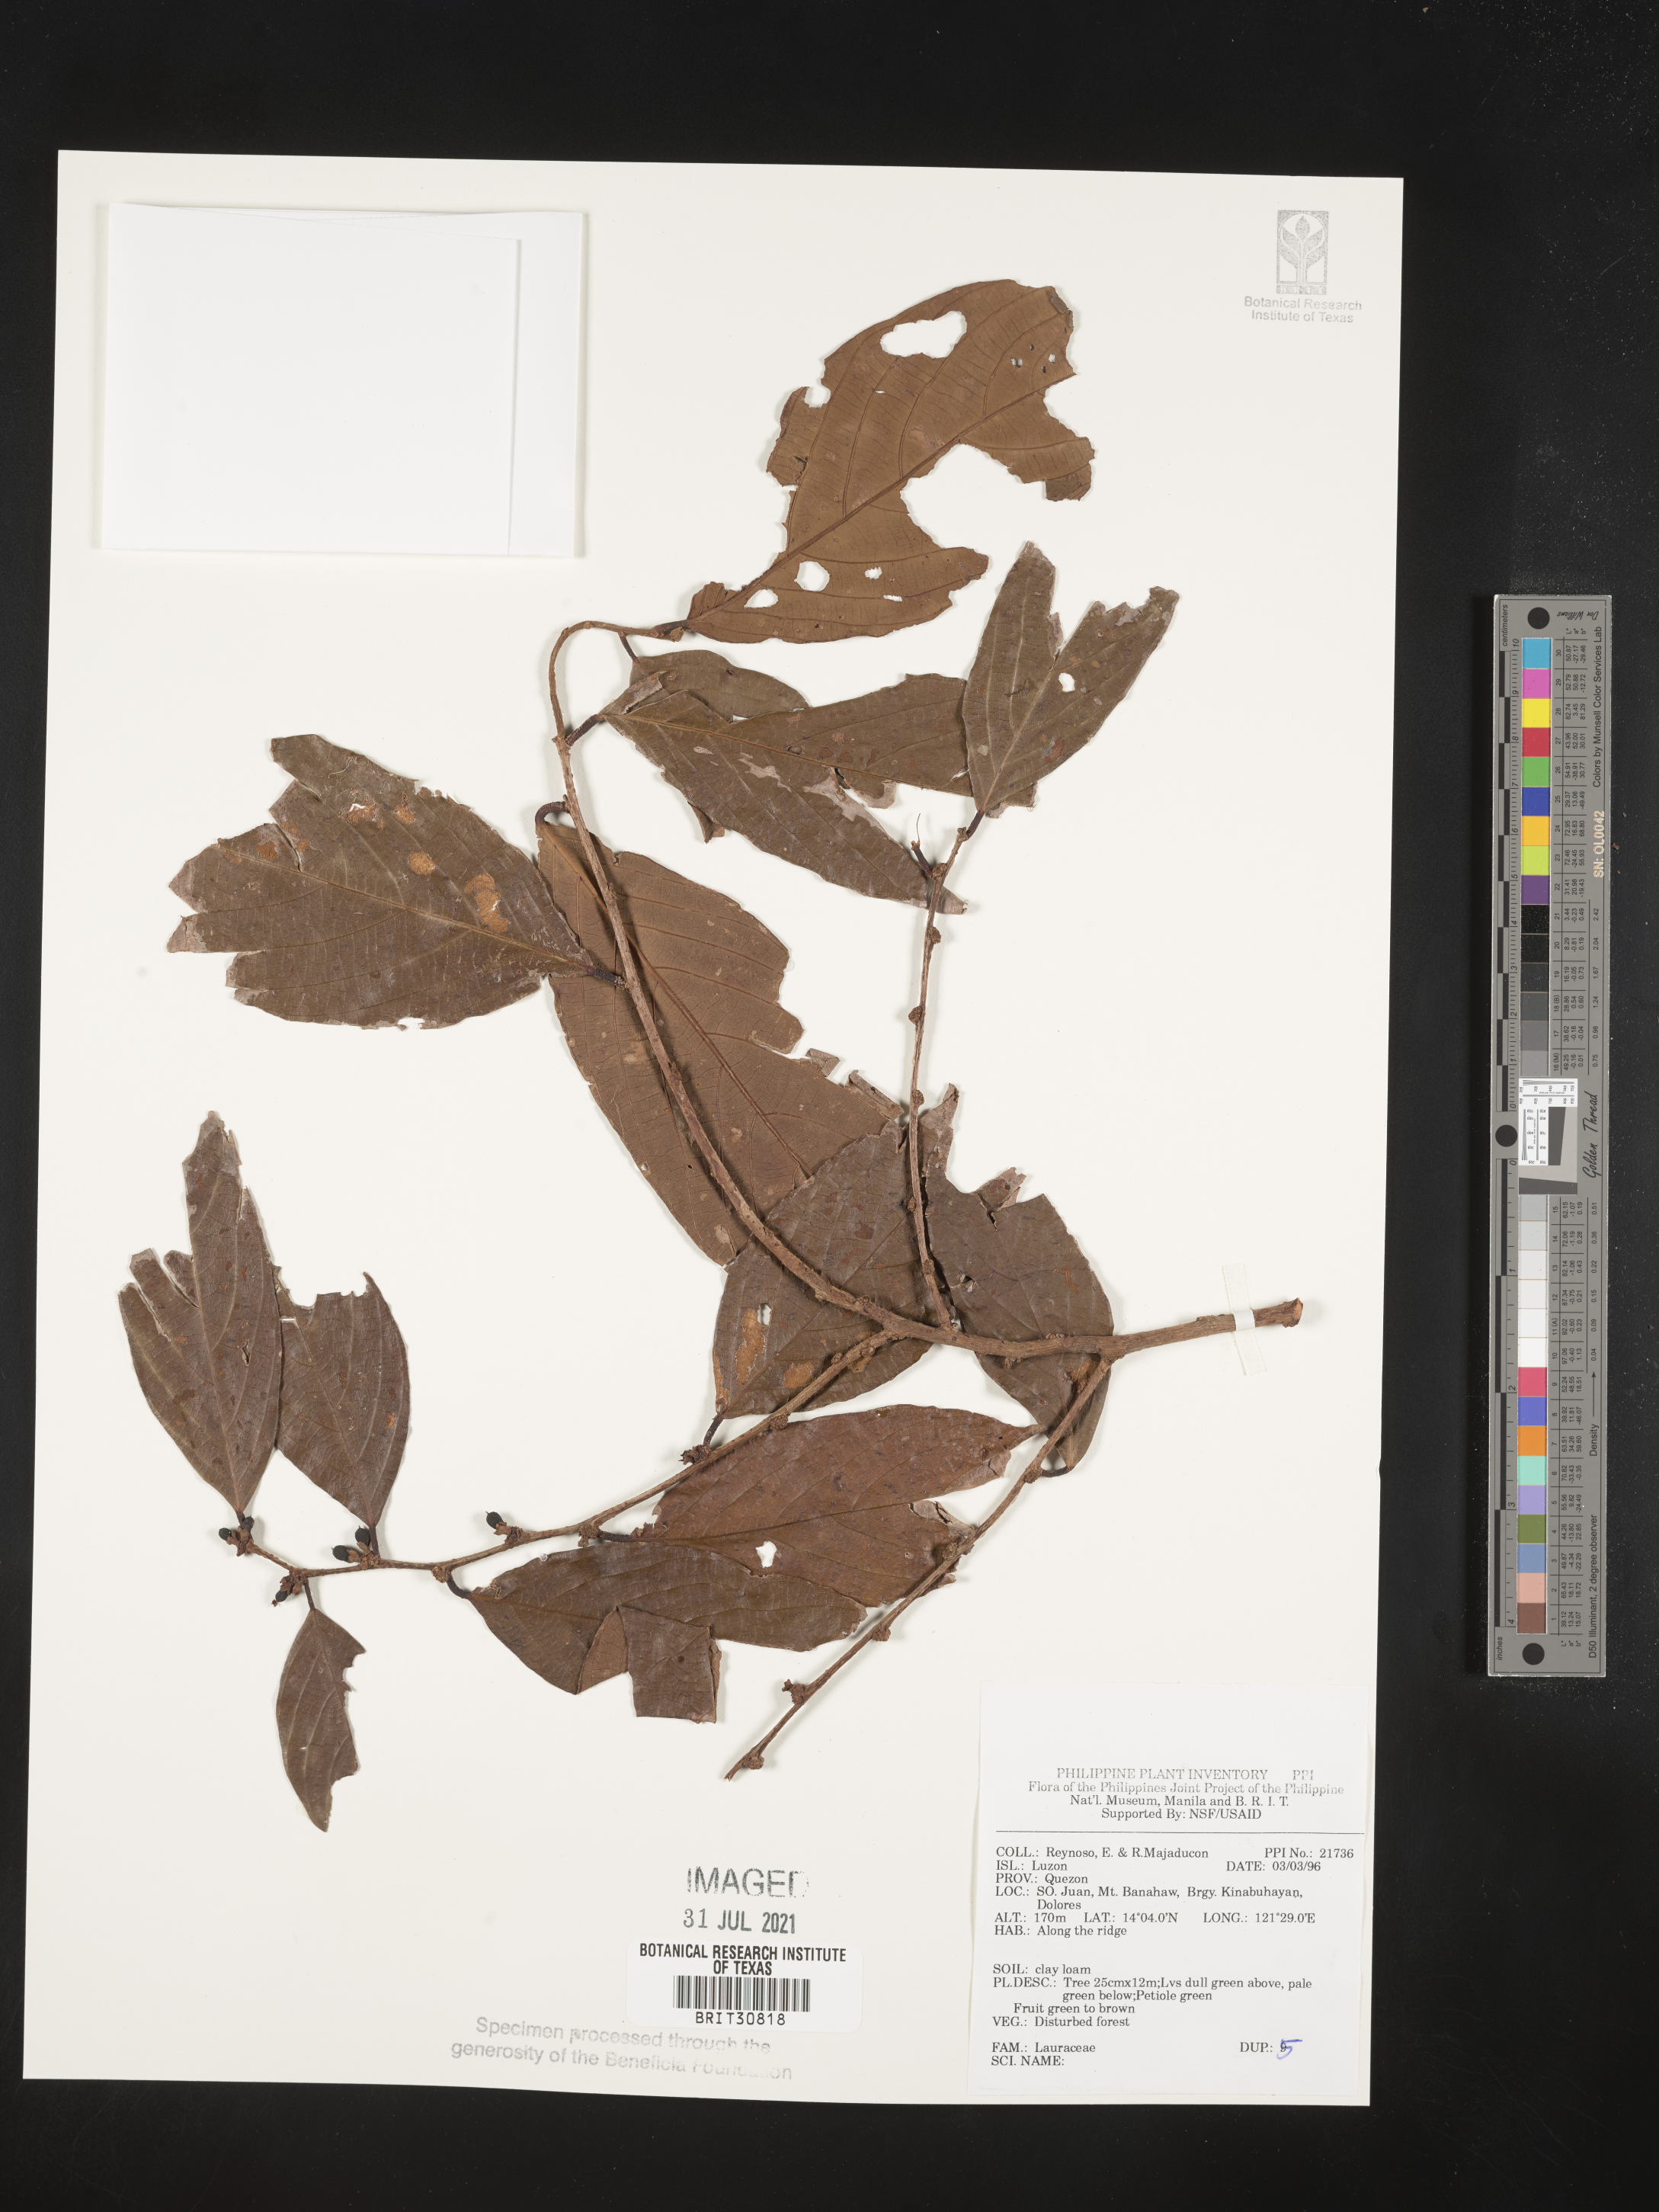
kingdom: Plantae
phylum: Tracheophyta
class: Magnoliopsida
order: Laurales
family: Lauraceae
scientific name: Lauraceae
